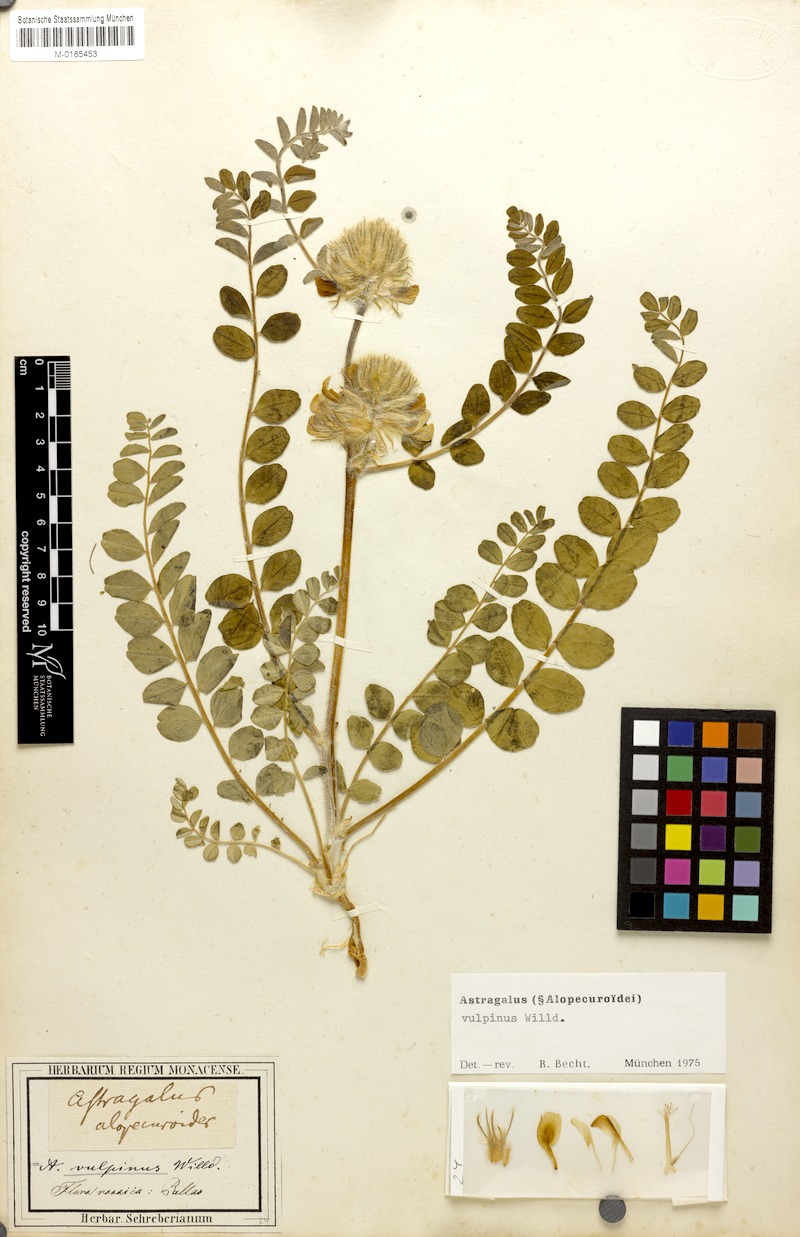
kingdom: Plantae
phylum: Tracheophyta
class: Magnoliopsida
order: Fabales
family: Fabaceae
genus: Astragalus
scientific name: Astragalus vulpinus
